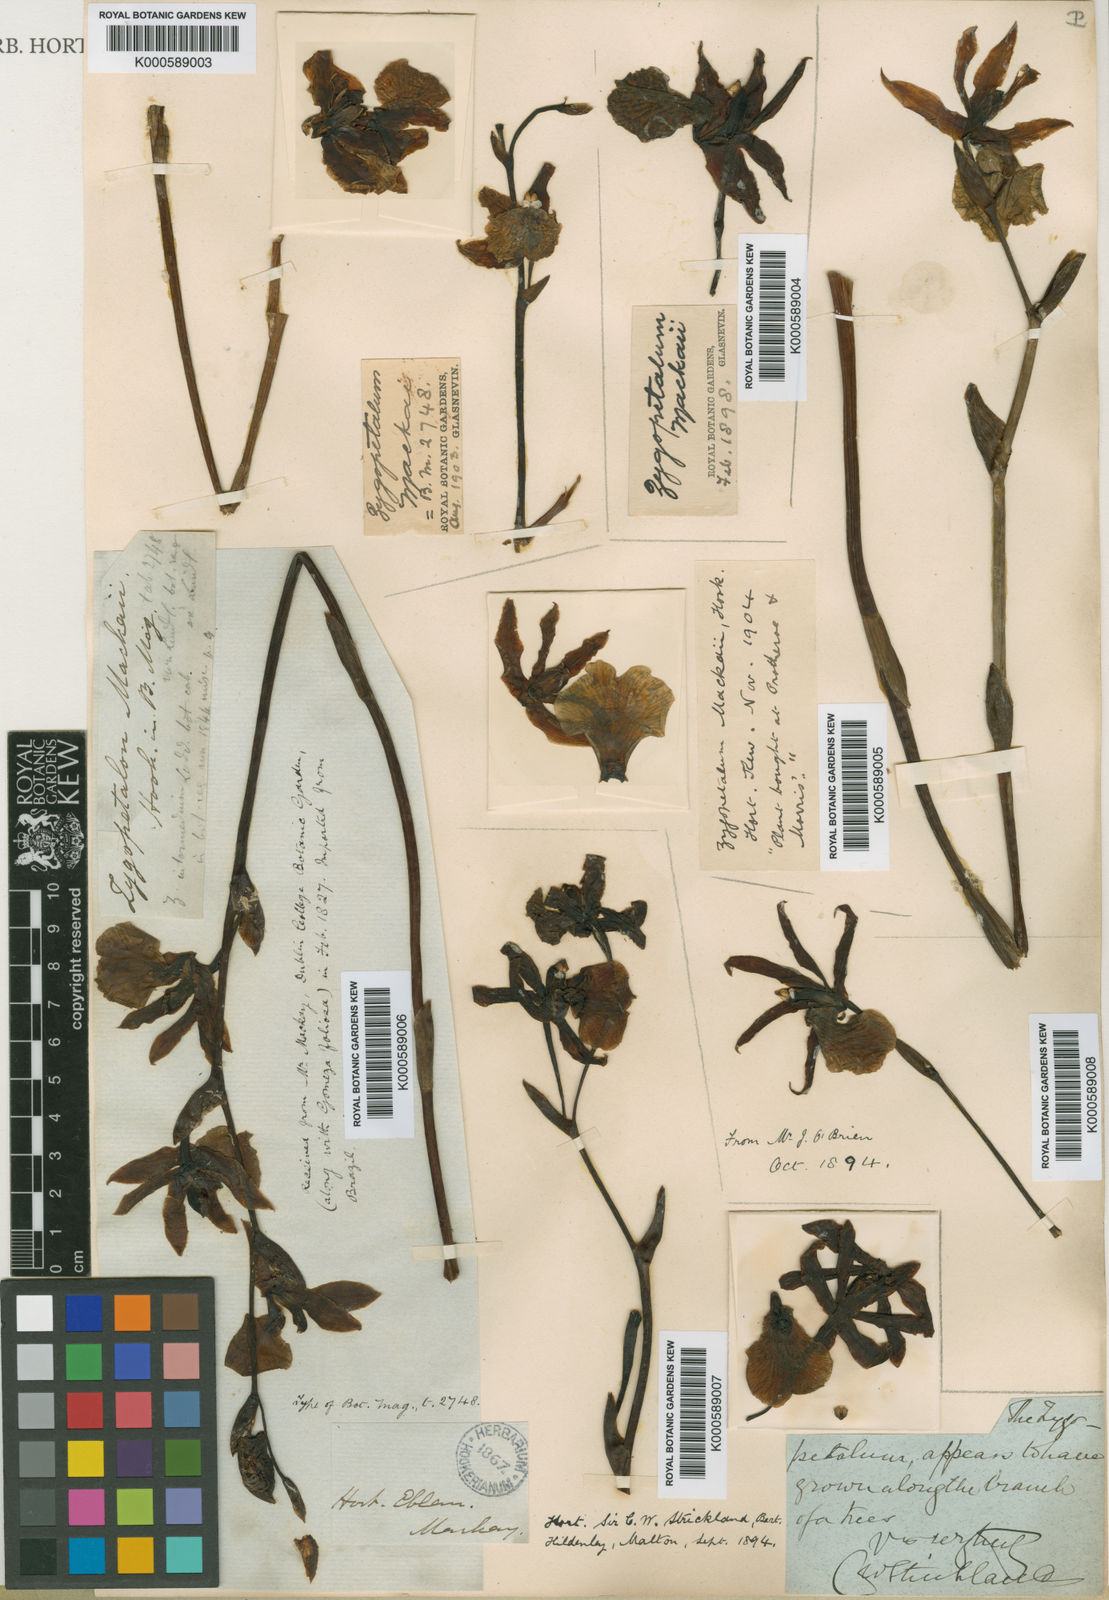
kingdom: Plantae
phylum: Tracheophyta
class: Liliopsida
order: Asparagales
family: Orchidaceae
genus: Zygopetalum
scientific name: Zygopetalum
